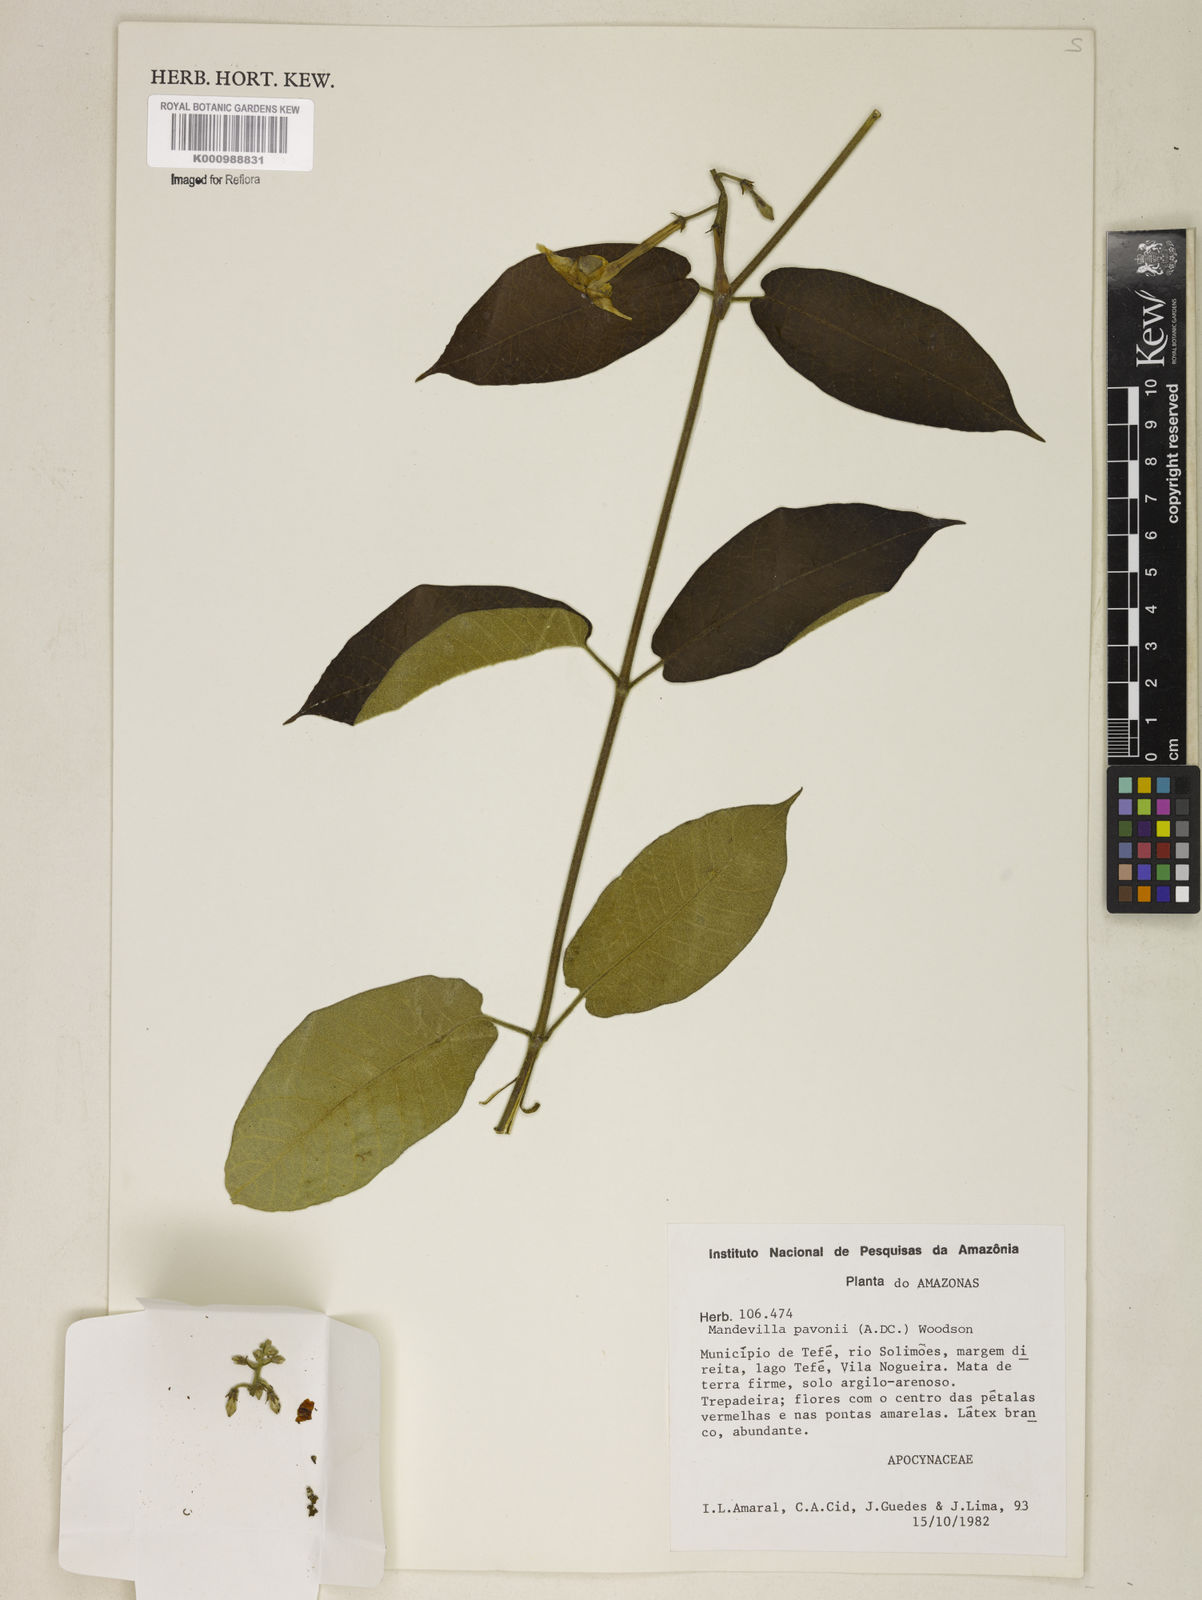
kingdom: Plantae
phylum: Tracheophyta
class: Magnoliopsida
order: Gentianales
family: Apocynaceae
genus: Mandevilla
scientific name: Mandevilla pavonii
